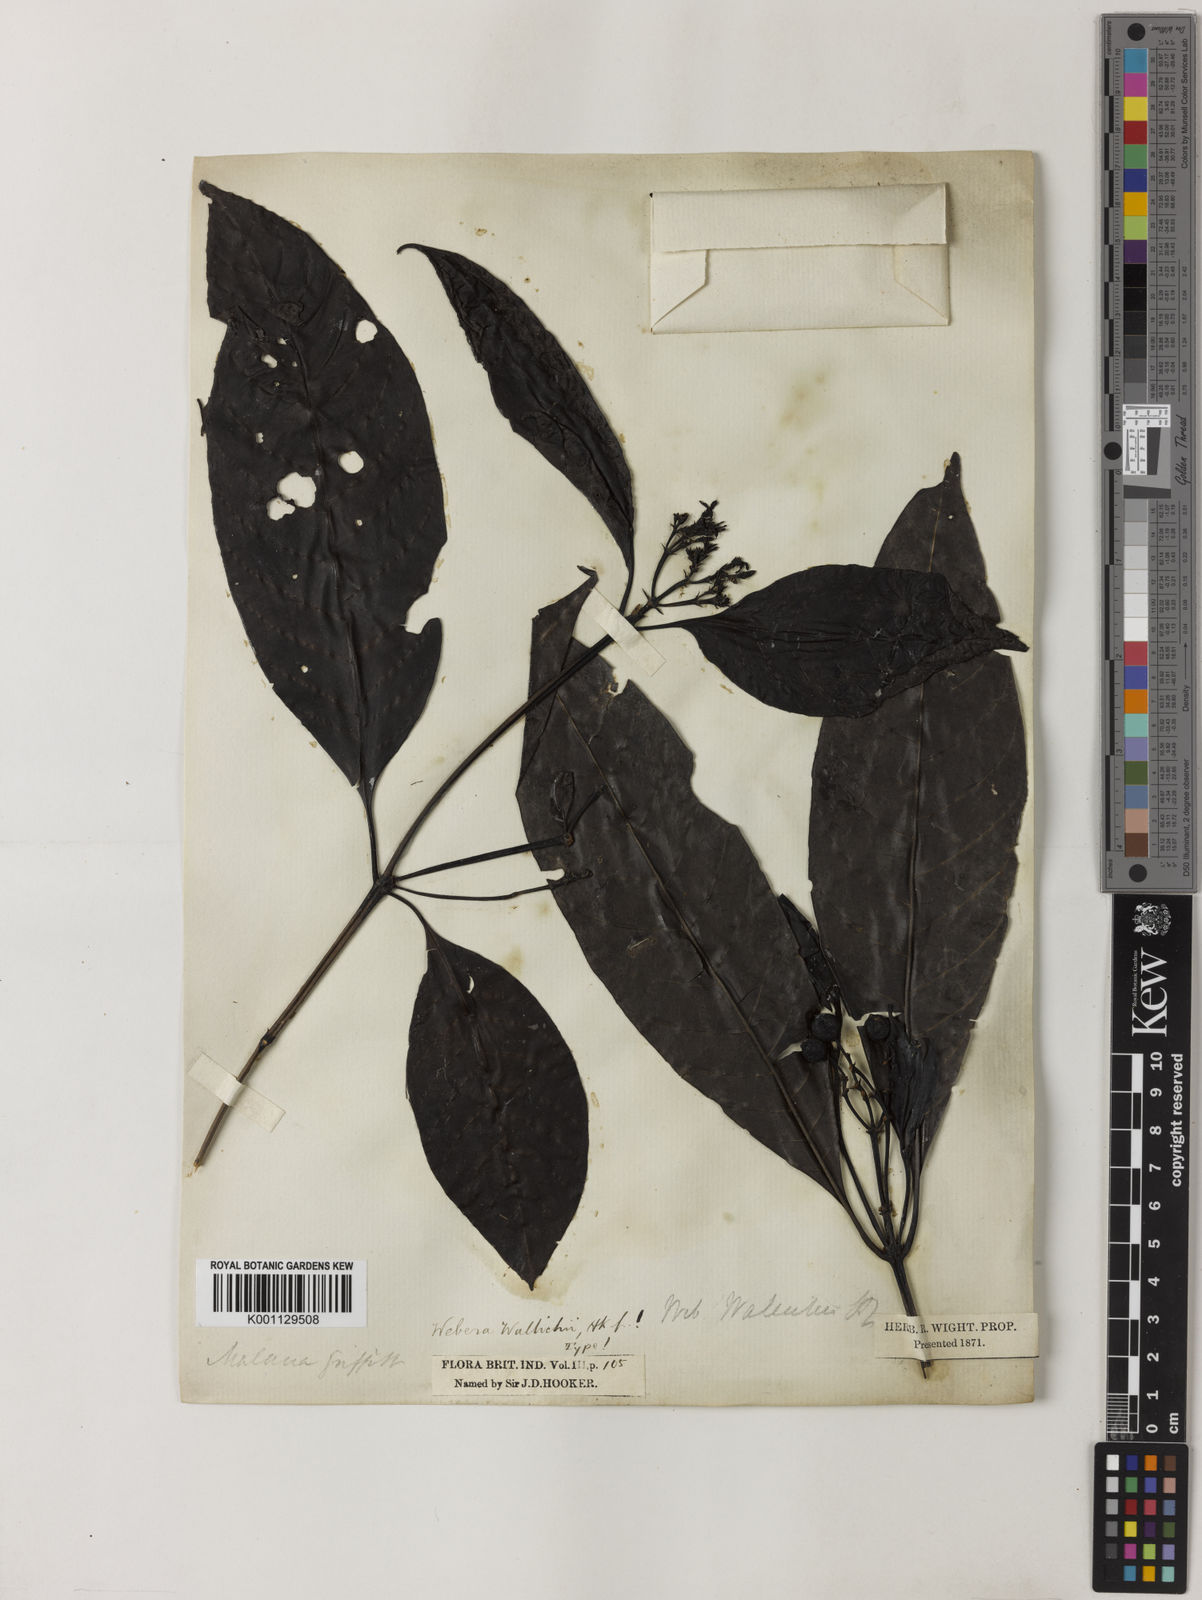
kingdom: Plantae
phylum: Tracheophyta
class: Magnoliopsida
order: Gentianales
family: Rubiaceae
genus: Tarenna
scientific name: Tarenna wallichii
